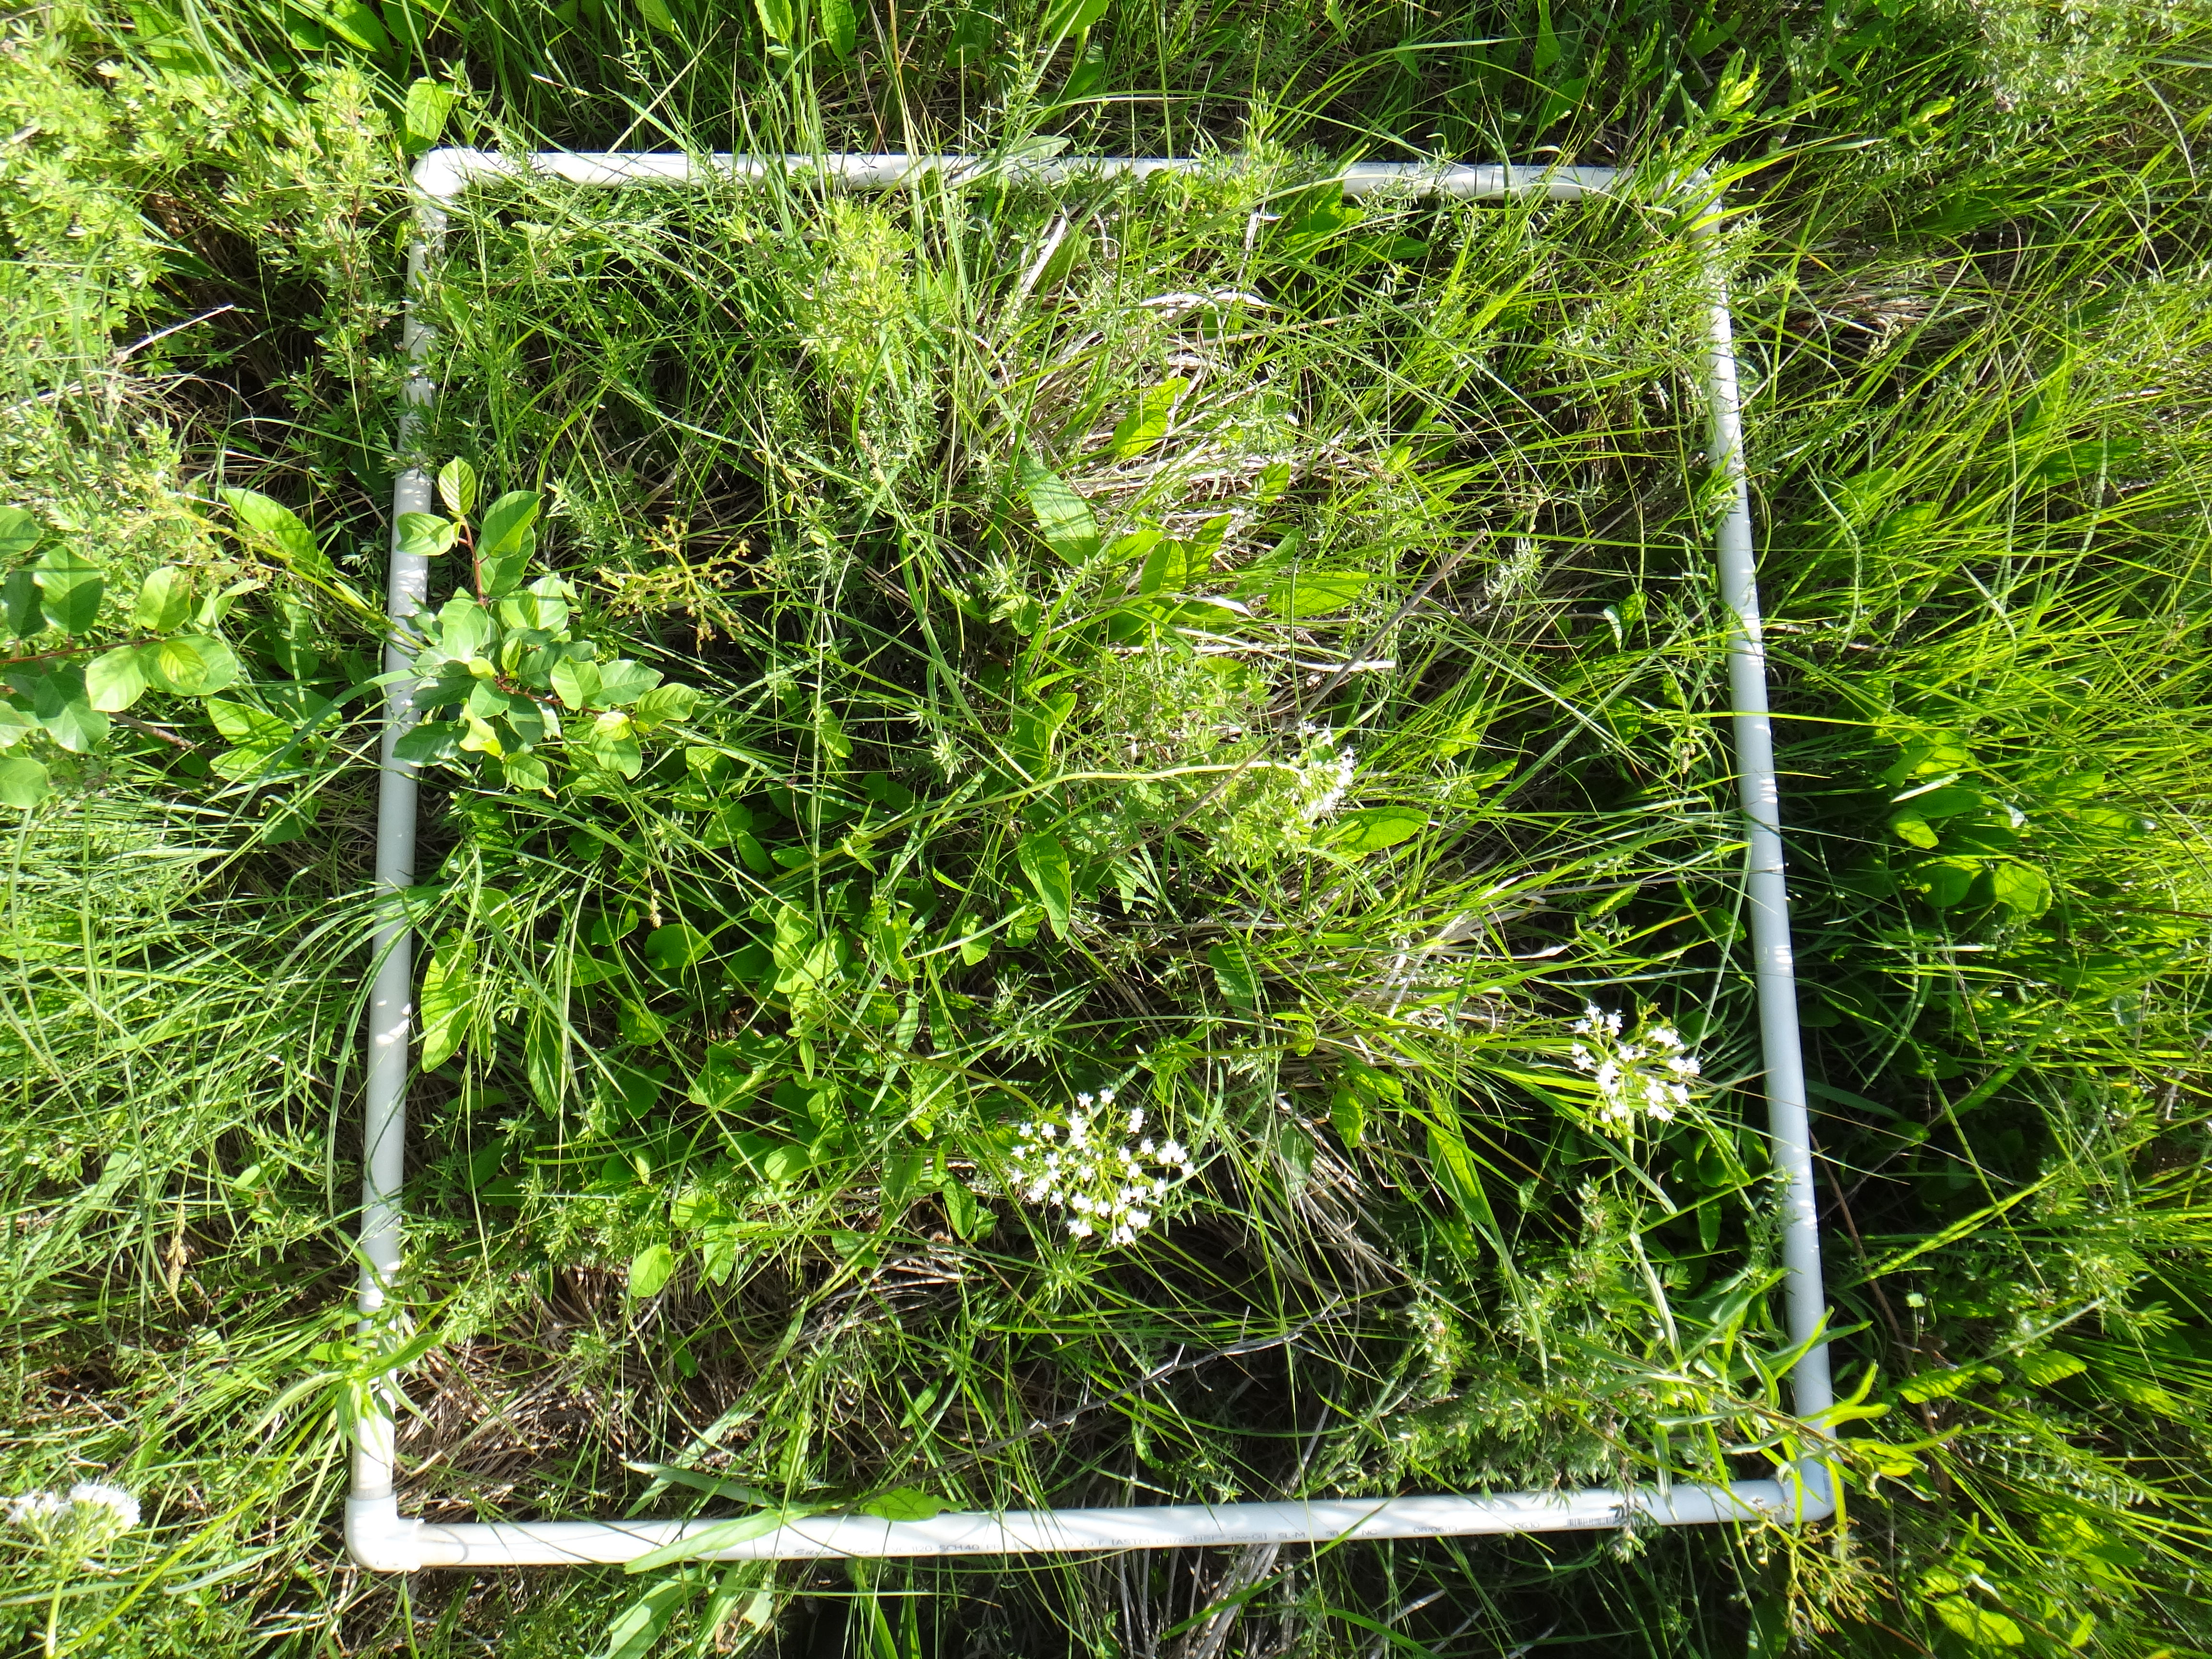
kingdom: Plantae
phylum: Tracheophyta
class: Magnoliopsida
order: Dipsacales
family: Caprifoliaceae
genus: Valeriana
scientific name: Valeriana uliginosa
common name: Marsh valerian
